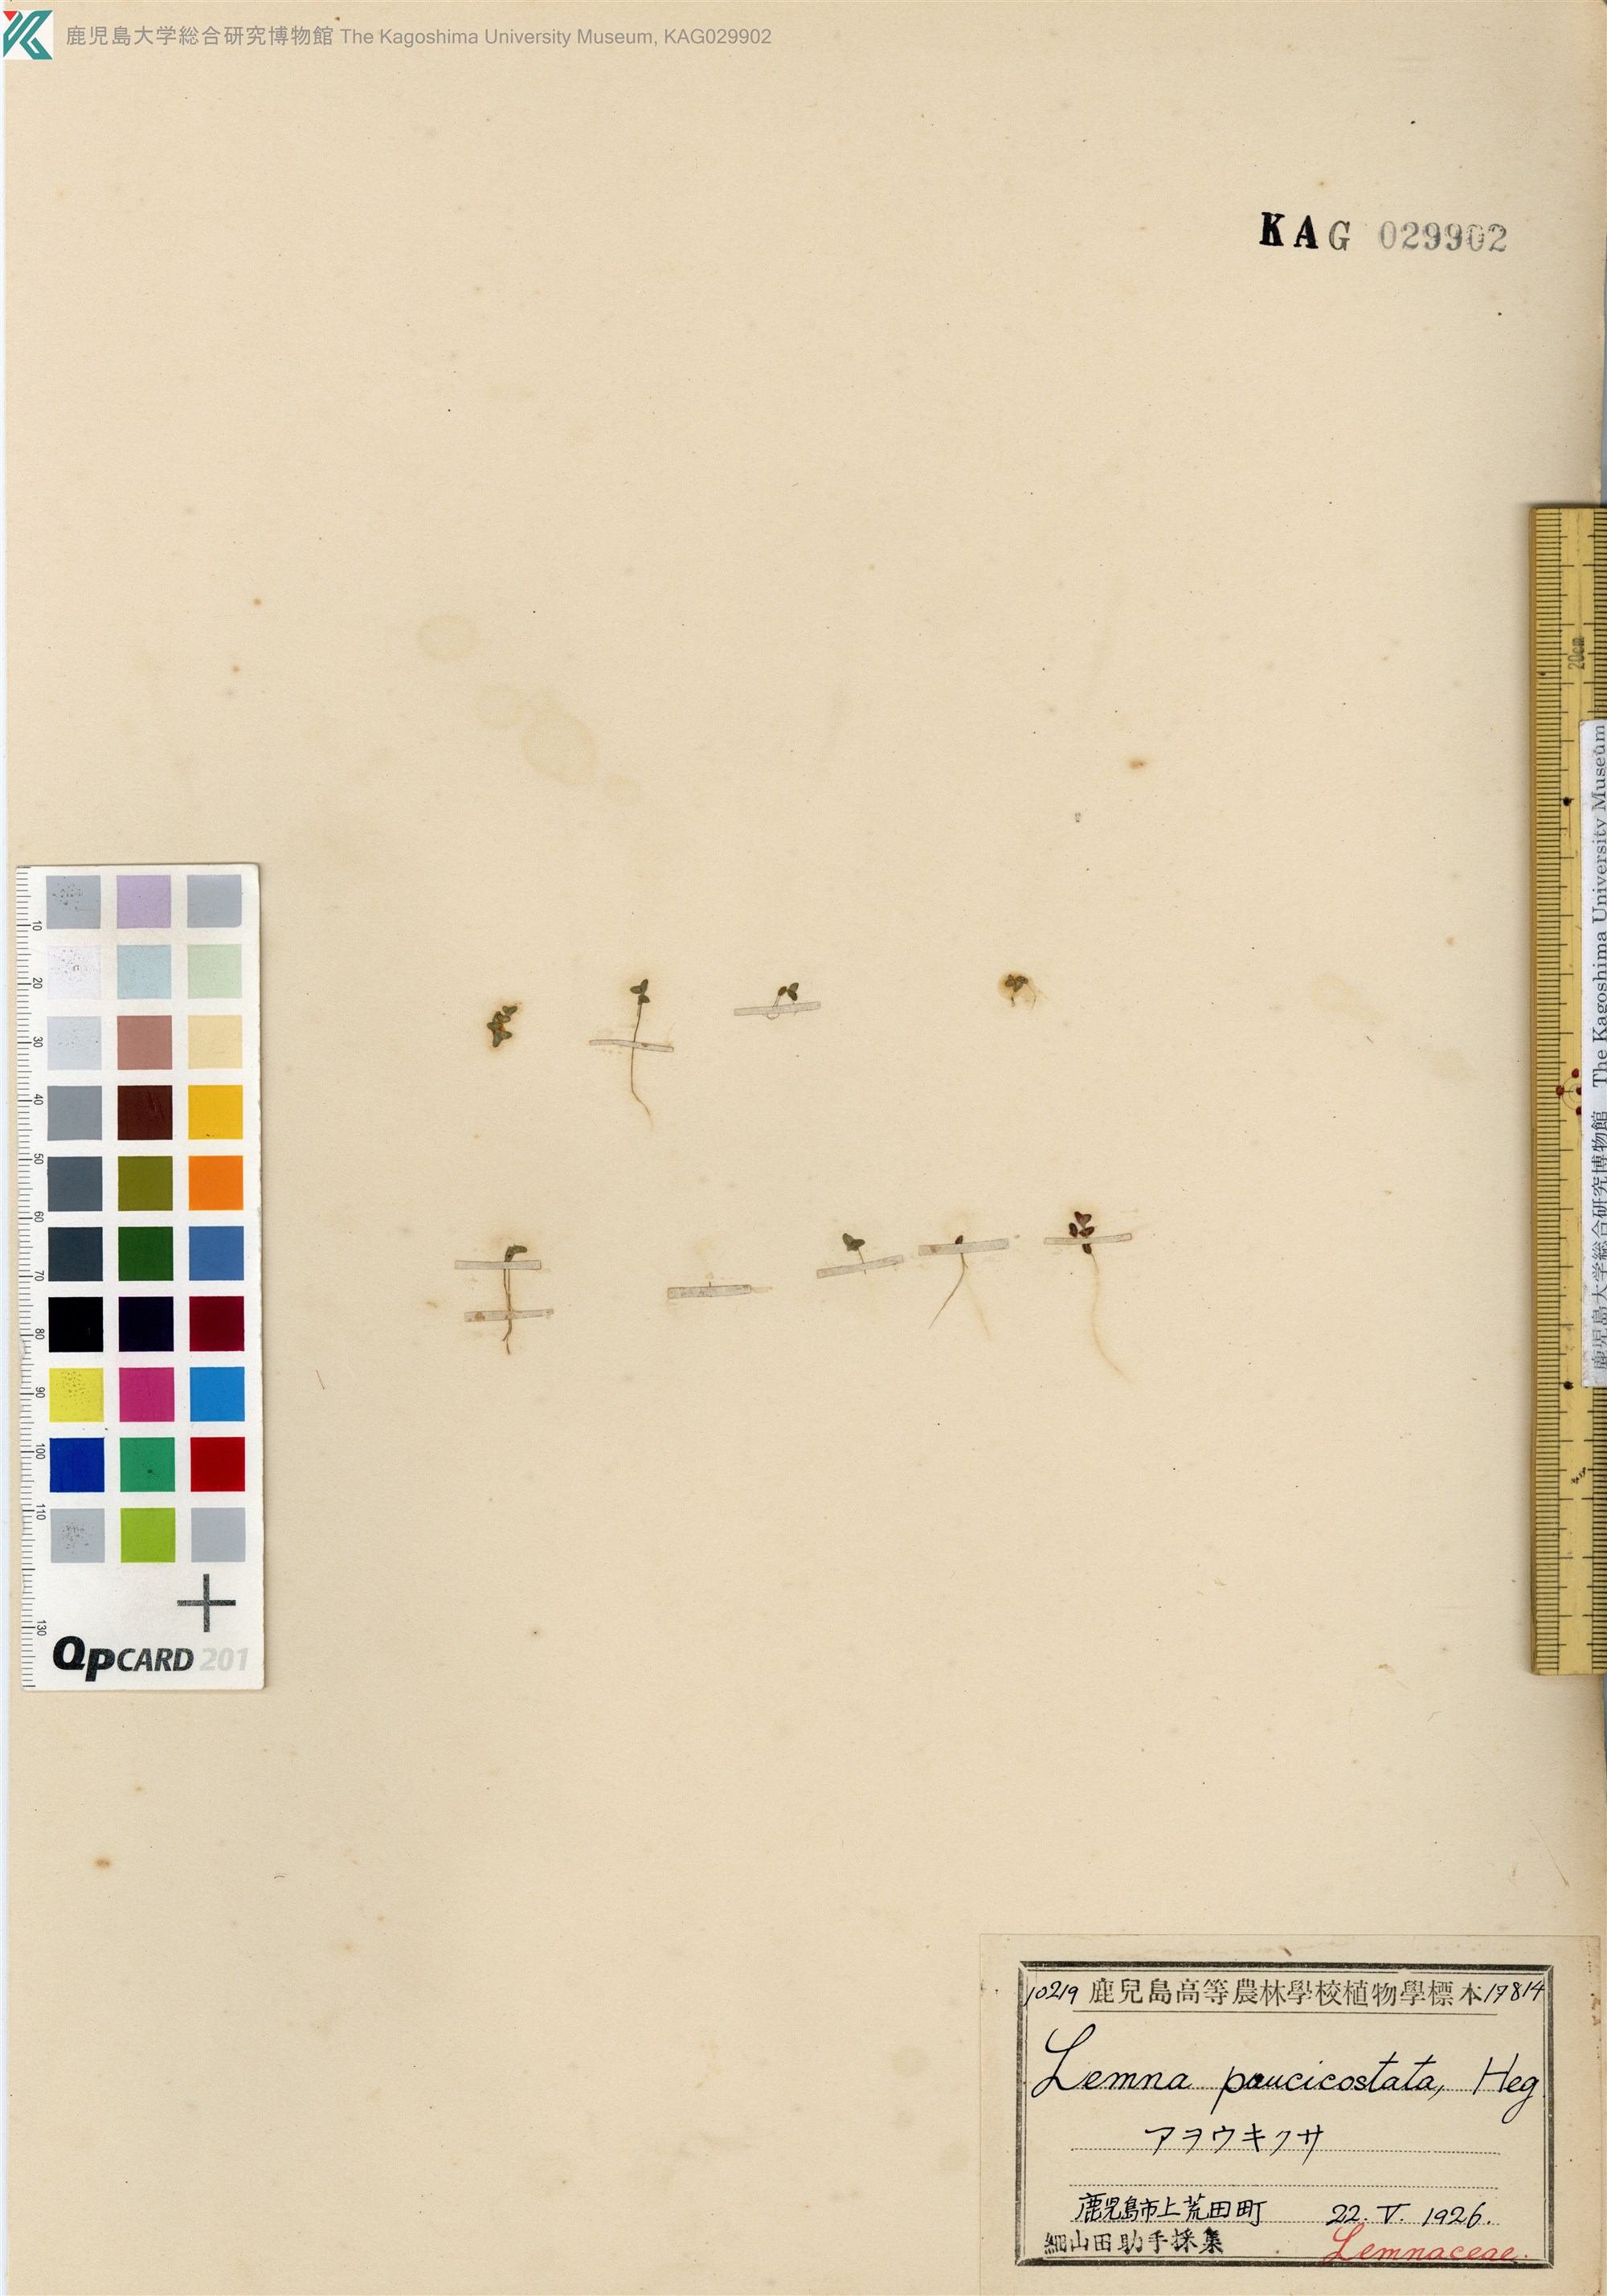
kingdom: Plantae
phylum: Tracheophyta
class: Liliopsida
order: Alismatales
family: Araceae
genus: Lemna
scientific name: Lemna aequinoctialis
